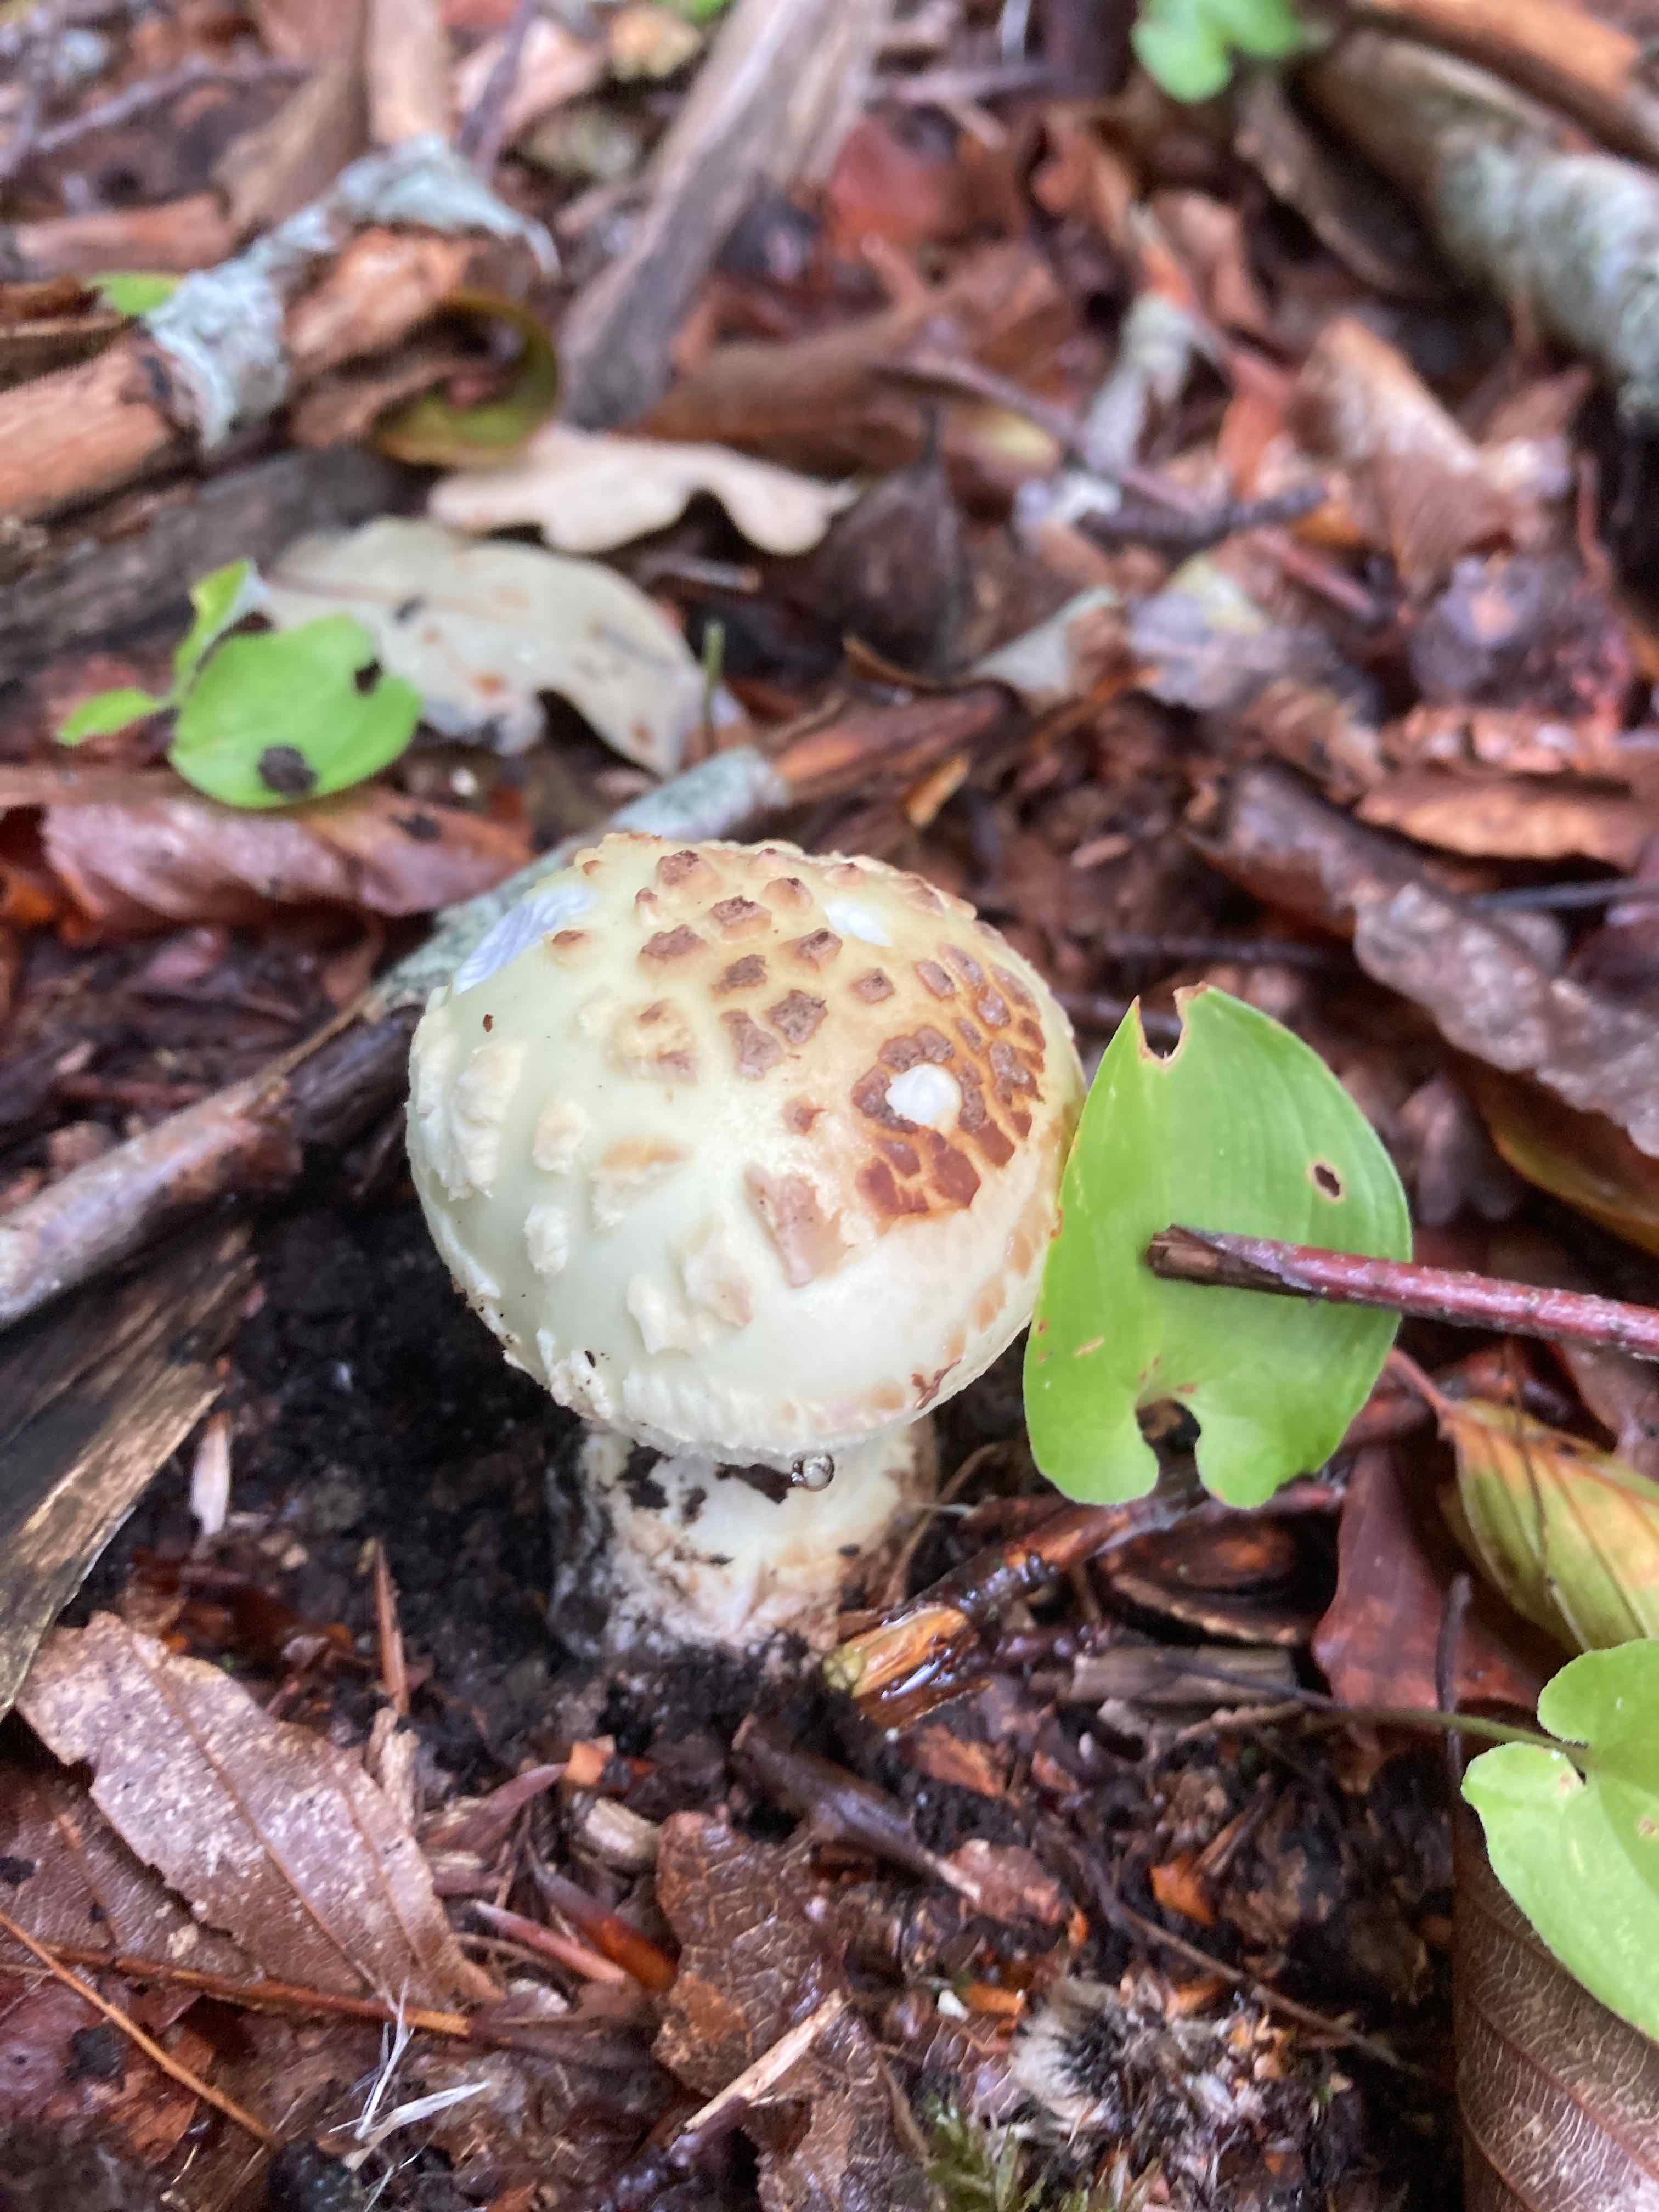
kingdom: Fungi
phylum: Basidiomycota
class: Agaricomycetes
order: Agaricales
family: Amanitaceae
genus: Amanita
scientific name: Amanita citrina
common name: kugleknoldet fluesvamp
